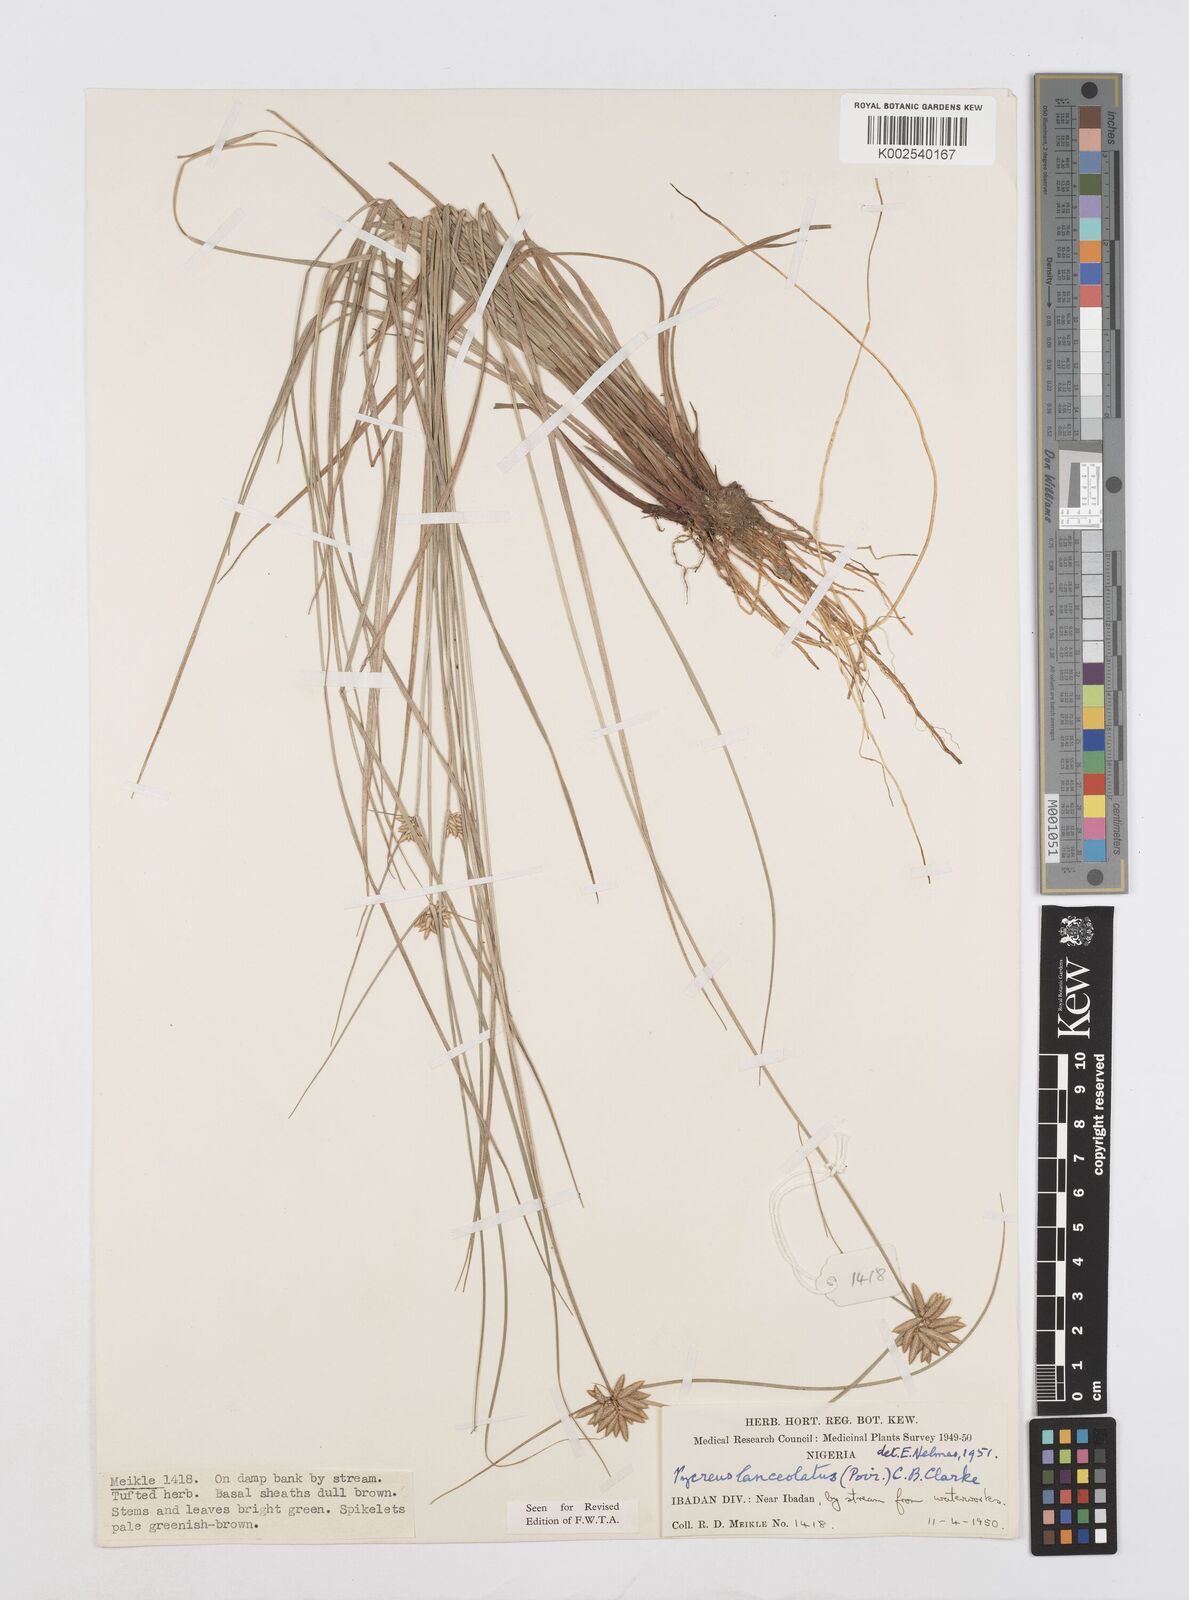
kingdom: Plantae
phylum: Tracheophyta
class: Liliopsida
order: Poales
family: Cyperaceae
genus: Cyperus
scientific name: Cyperus
